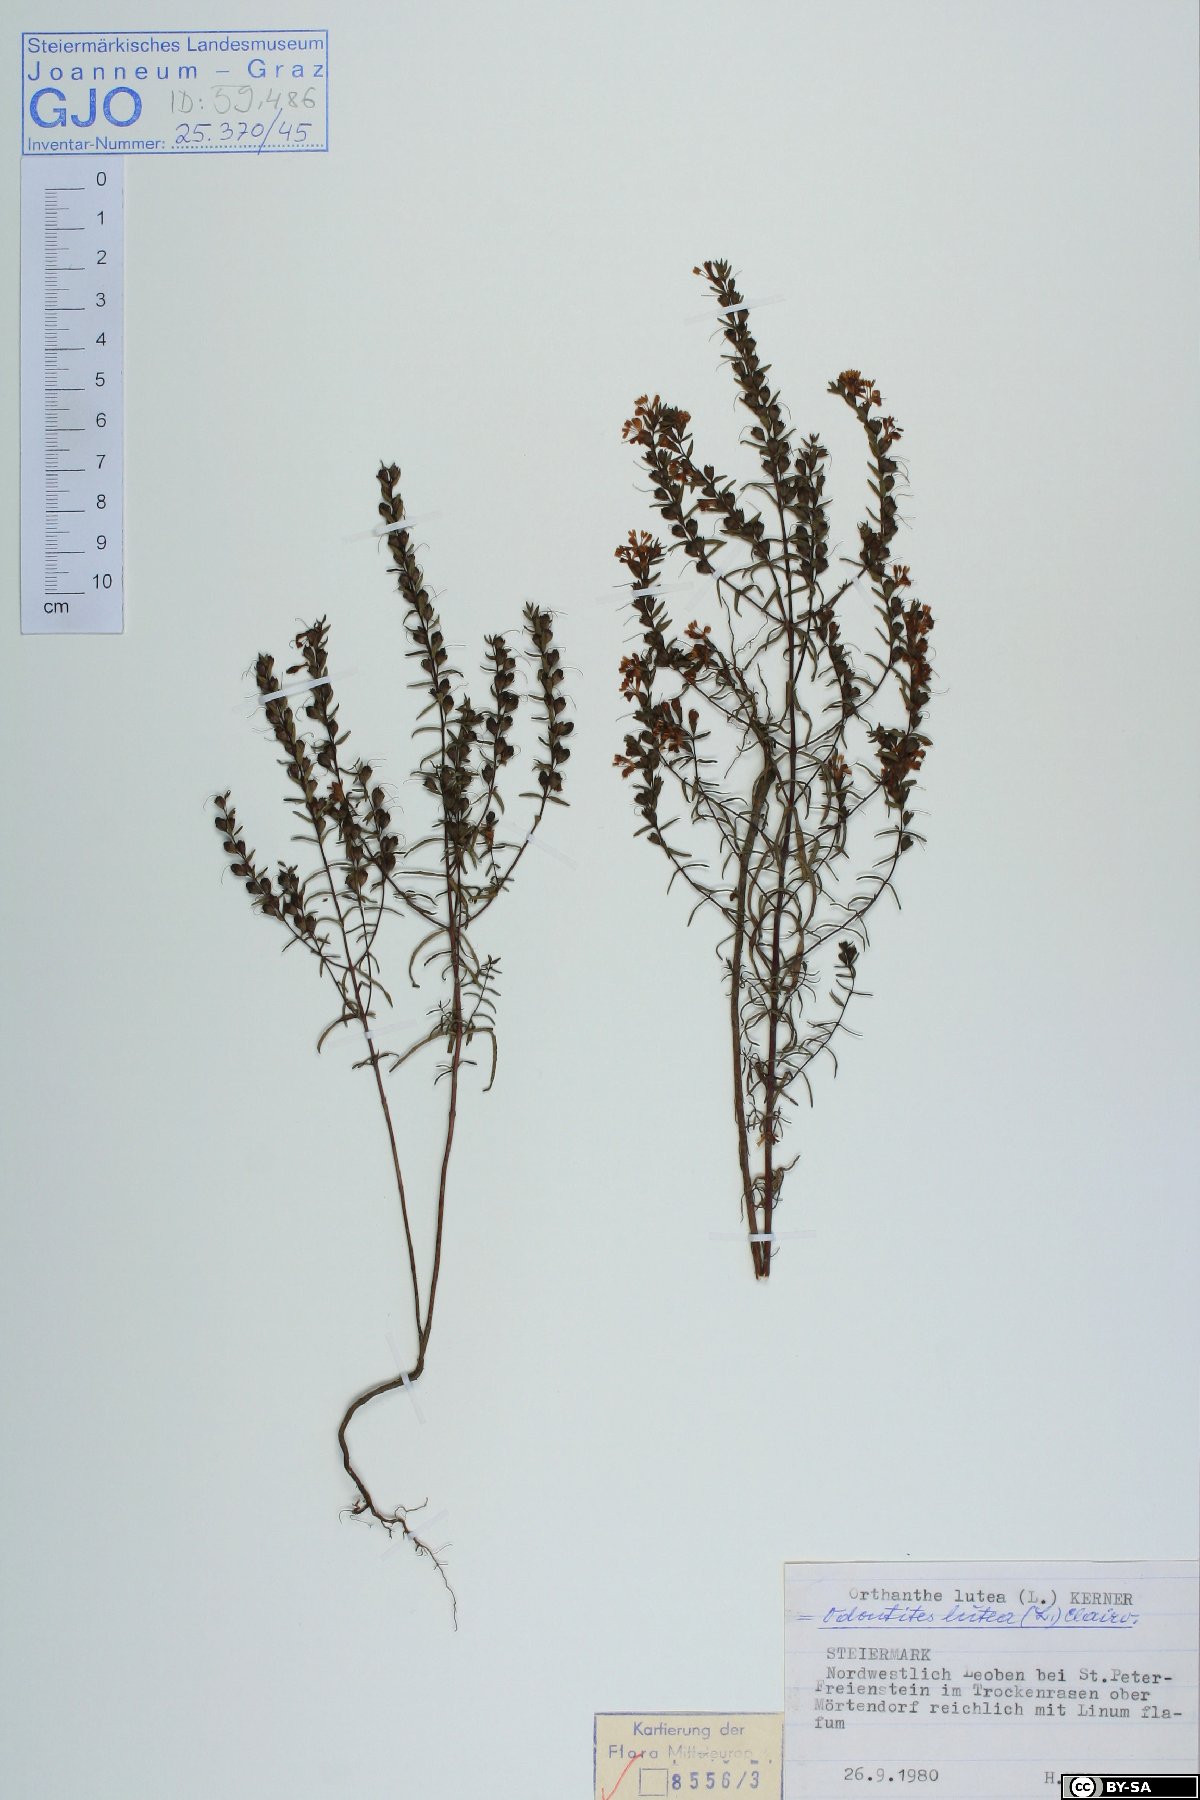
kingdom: Plantae
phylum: Tracheophyta
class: Magnoliopsida
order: Lamiales
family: Orobanchaceae
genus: Odontites
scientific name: Odontites luteus
